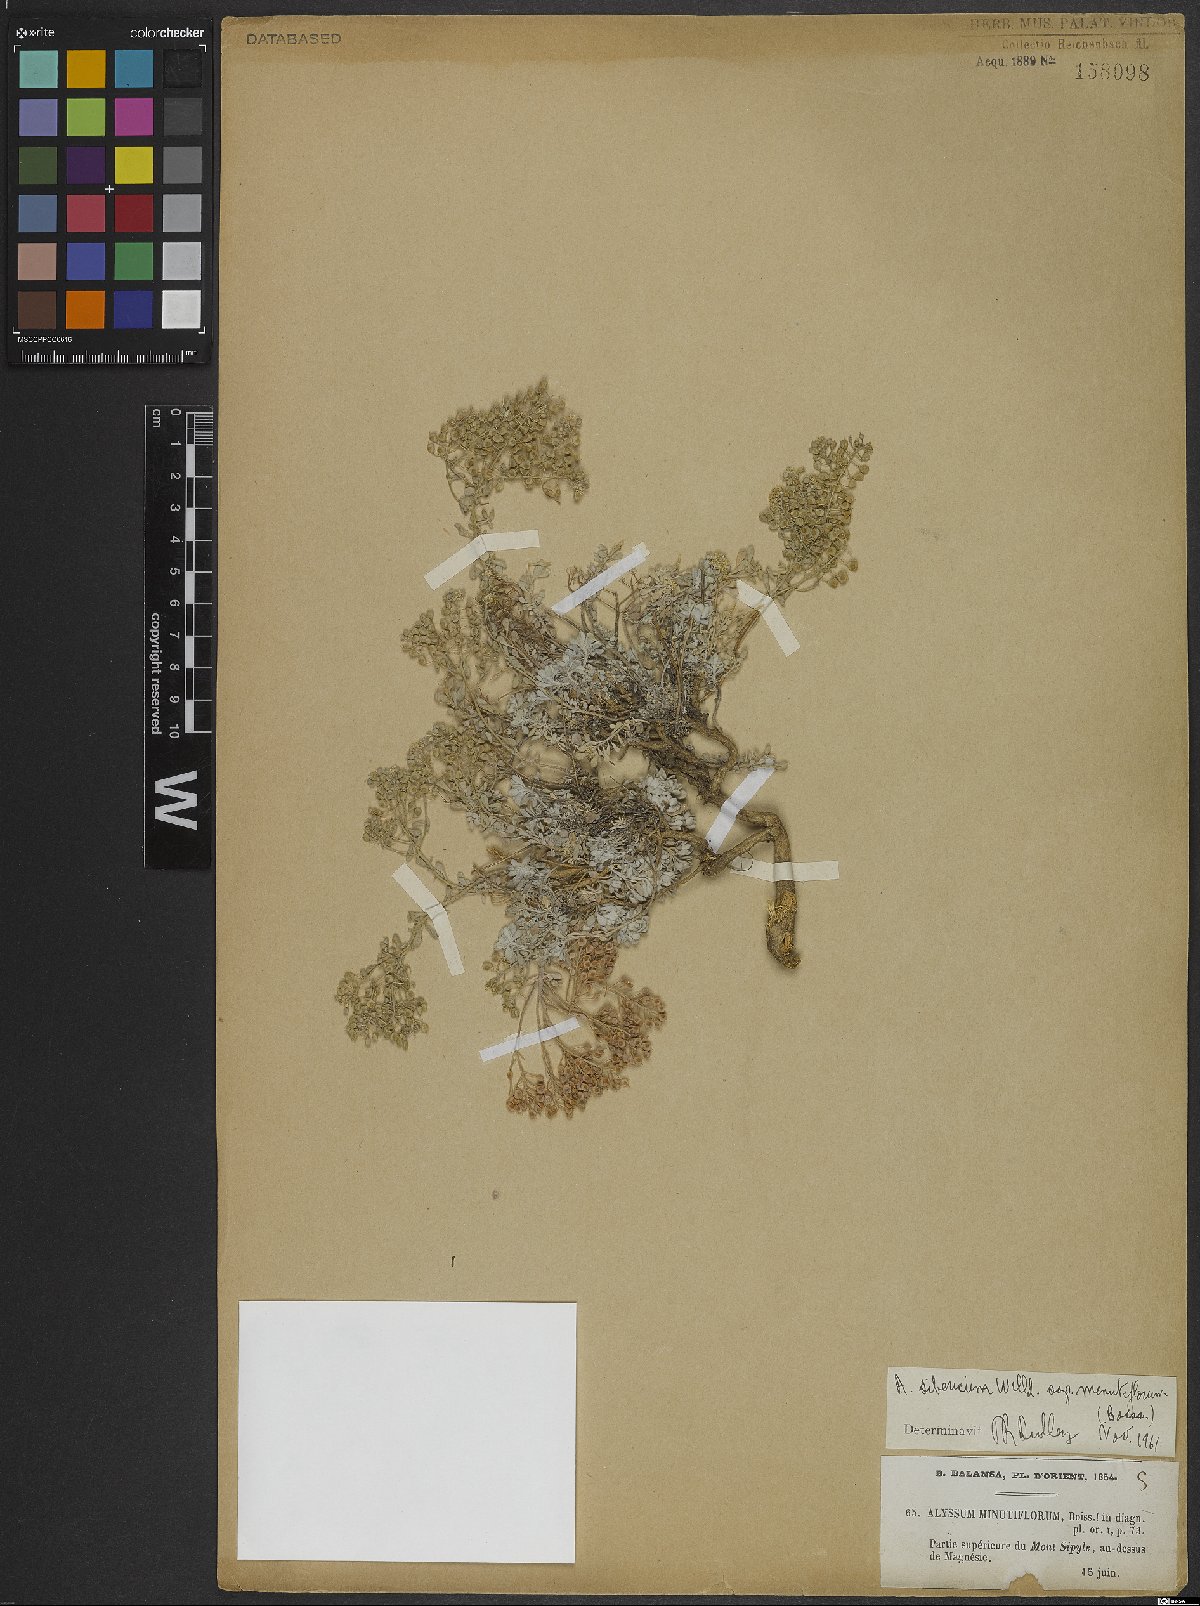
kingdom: Plantae
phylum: Tracheophyta
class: Magnoliopsida
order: Brassicales
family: Brassicaceae
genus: Odontarrhena
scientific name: Odontarrhena sibirica
